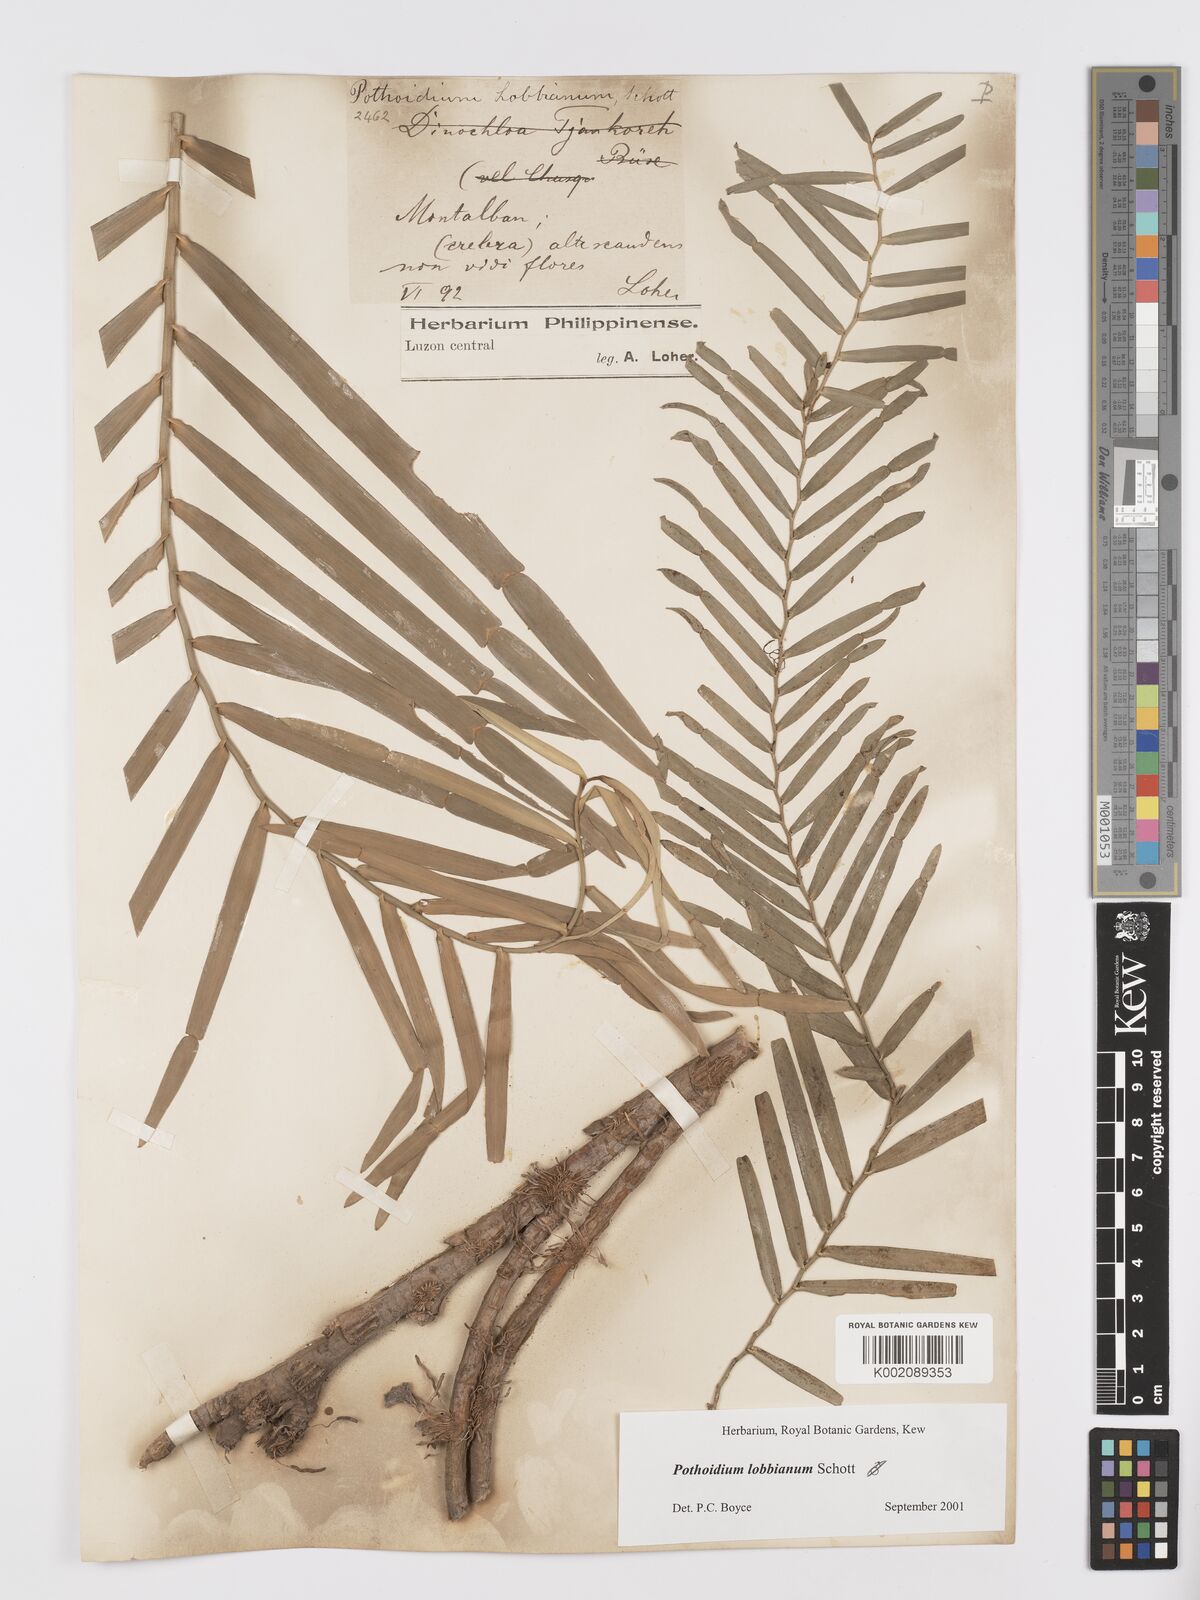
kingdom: Plantae
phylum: Tracheophyta
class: Liliopsida
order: Alismatales
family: Araceae
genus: Pothoidium
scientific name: Pothoidium lobbianum
